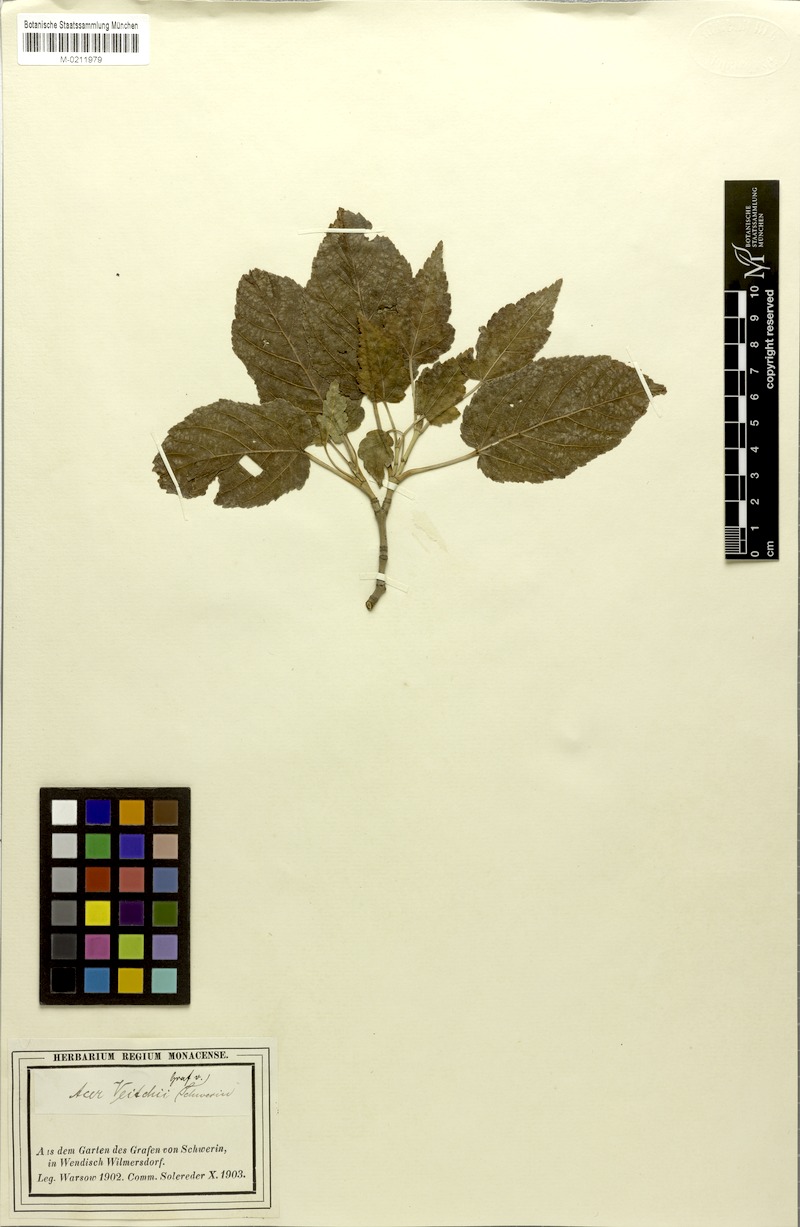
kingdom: Plantae
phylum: Tracheophyta
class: Magnoliopsida
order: Sapindales
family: Sapindaceae
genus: Acer
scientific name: Acer crataegifolium
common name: Hawthorn-leaf maple
